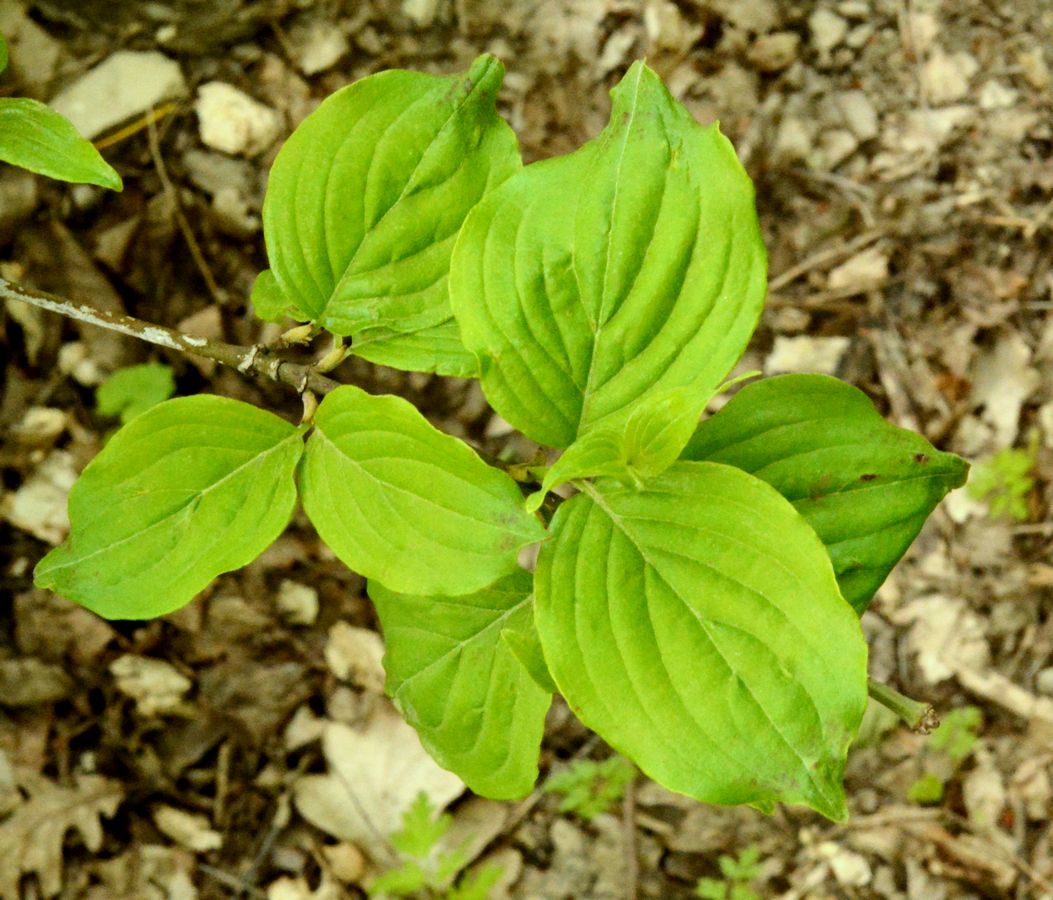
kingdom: Plantae
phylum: Tracheophyta
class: Magnoliopsida
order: Cornales
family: Cornaceae
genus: Cornus
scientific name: Cornus sanguinea
